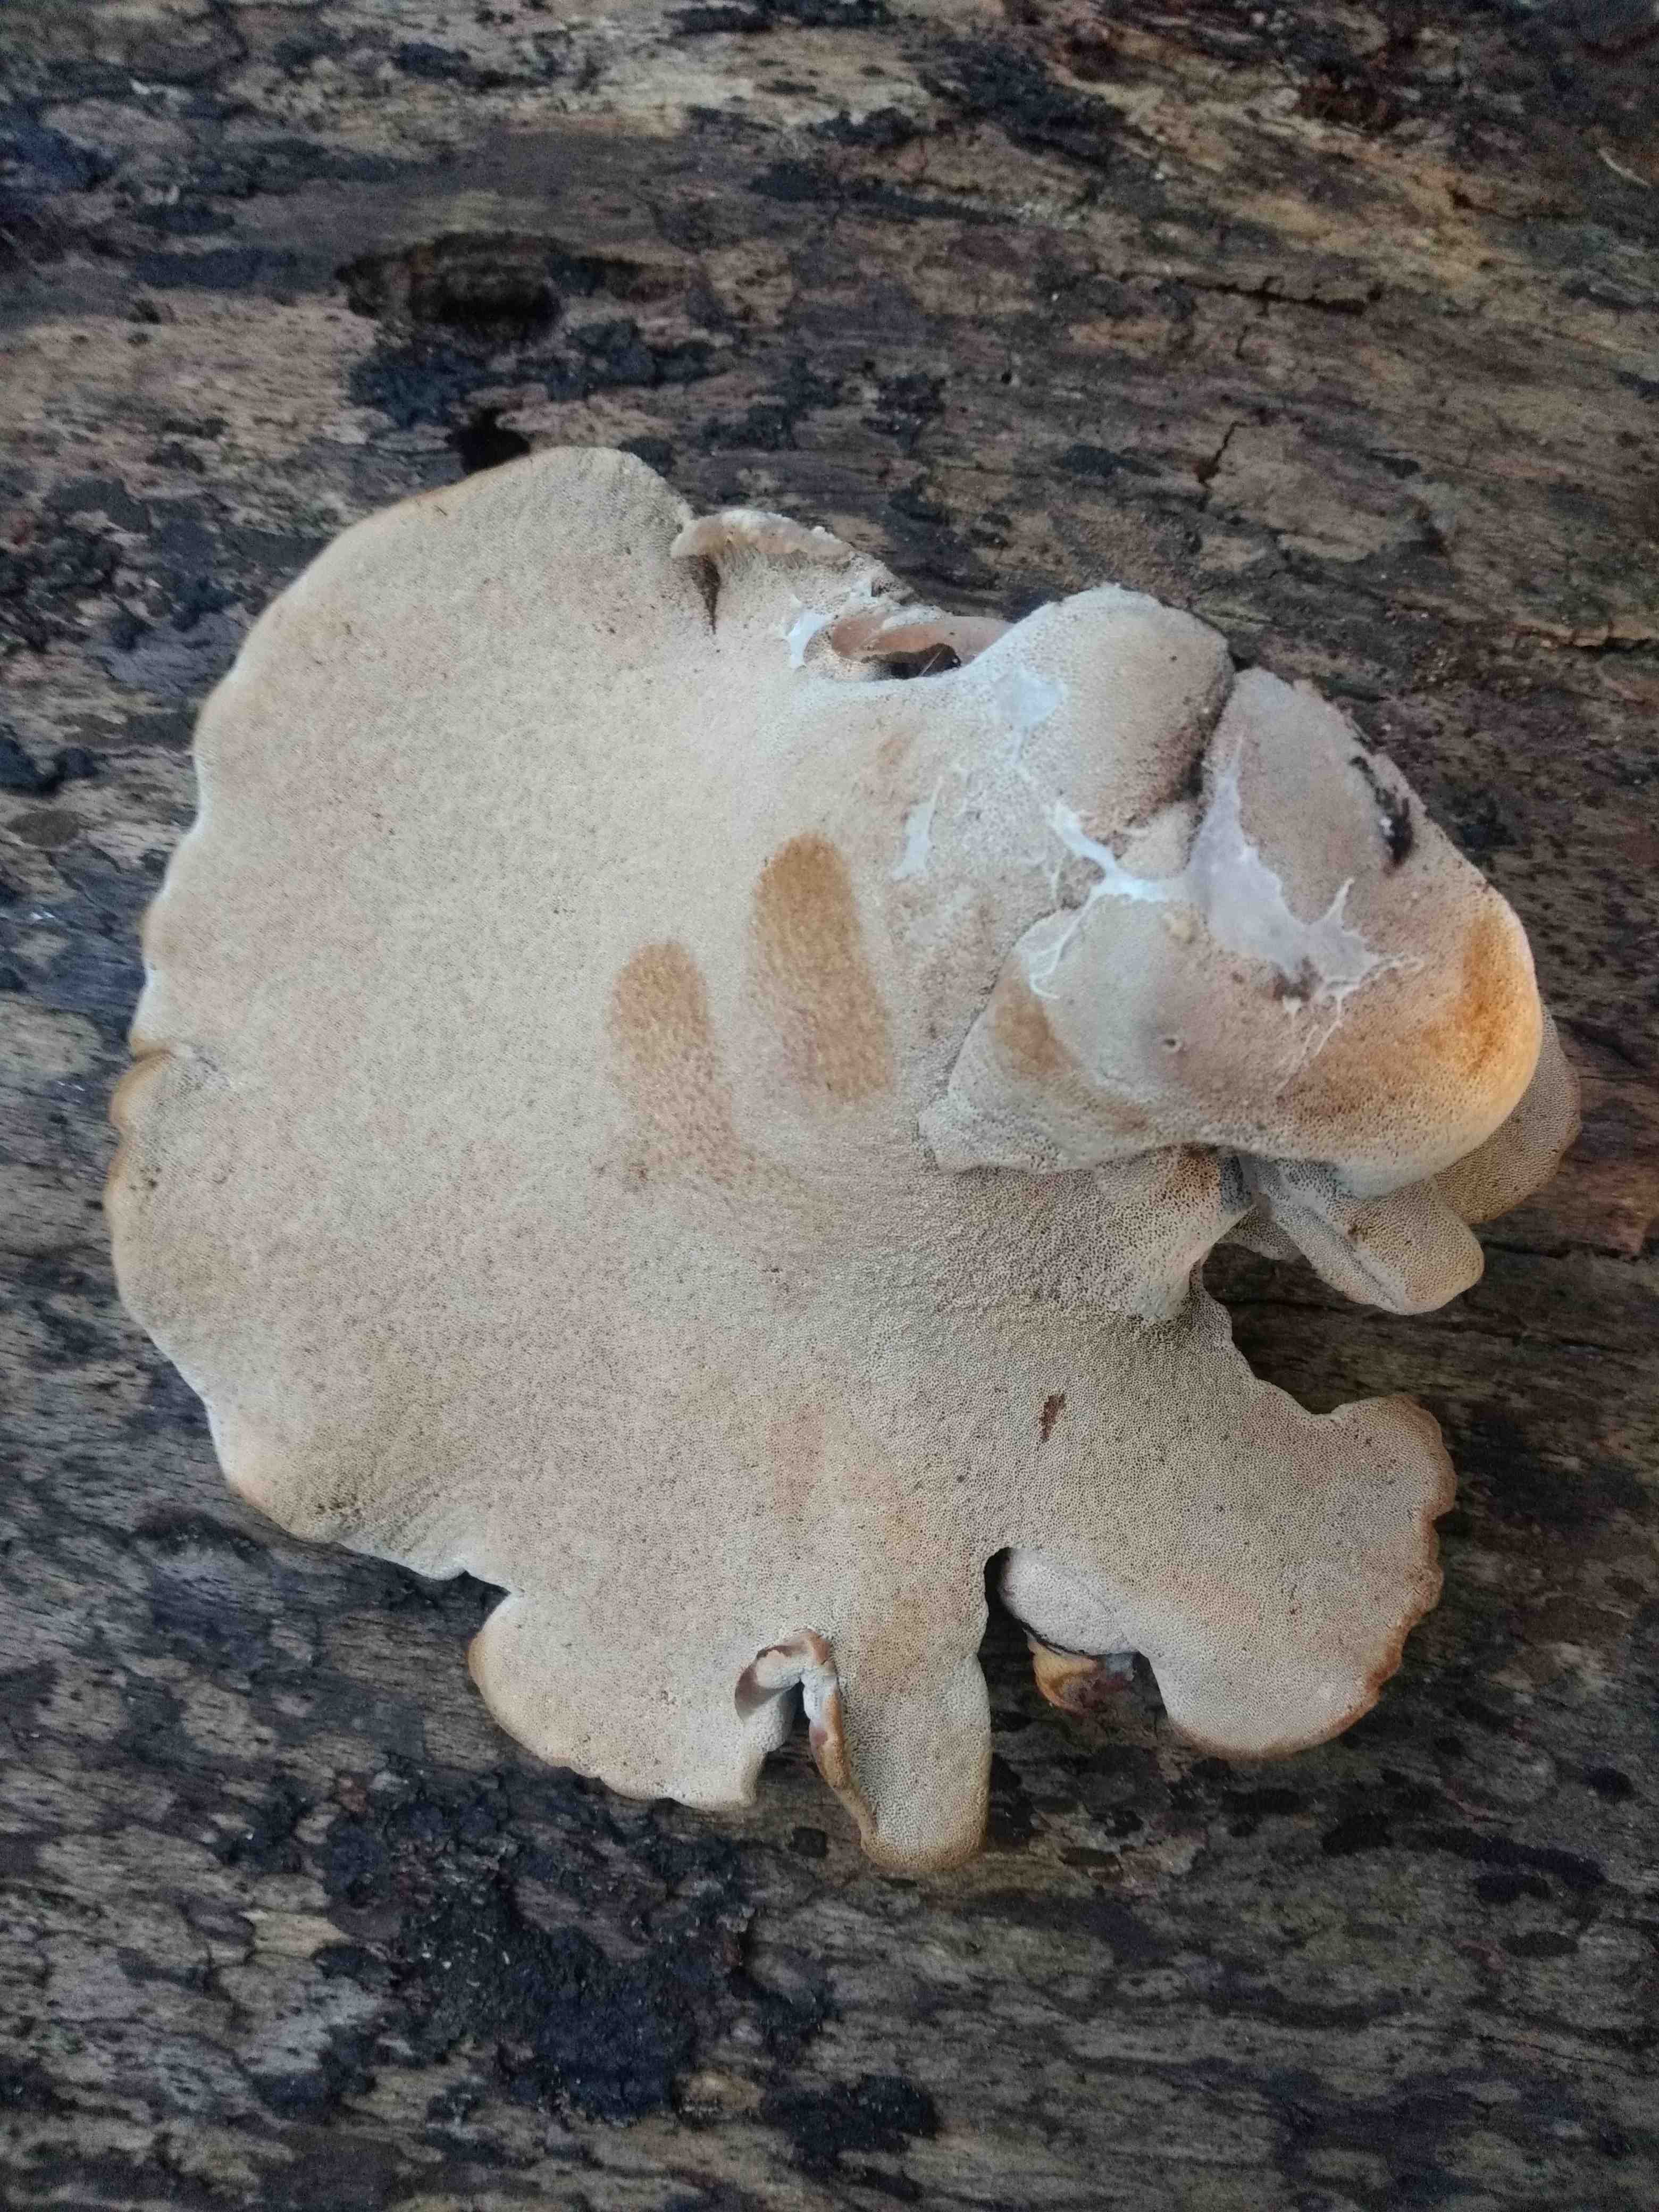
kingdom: Fungi
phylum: Basidiomycota
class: Agaricomycetes
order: Polyporales
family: Polyporaceae
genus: Cerioporus
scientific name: Cerioporus varius
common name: foranderlig stilkporesvamp
